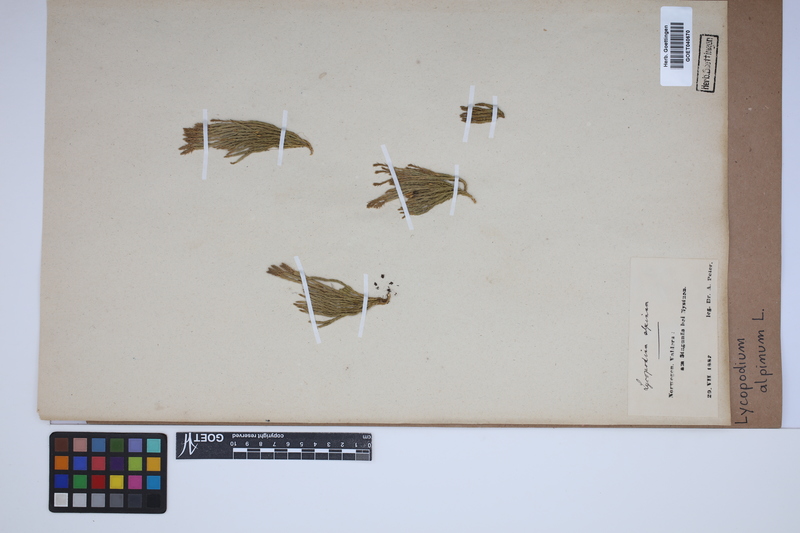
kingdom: Plantae
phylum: Tracheophyta
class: Lycopodiopsida
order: Lycopodiales
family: Lycopodiaceae
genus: Diphasiastrum
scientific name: Diphasiastrum alpinum
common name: Alpine clubmoss
